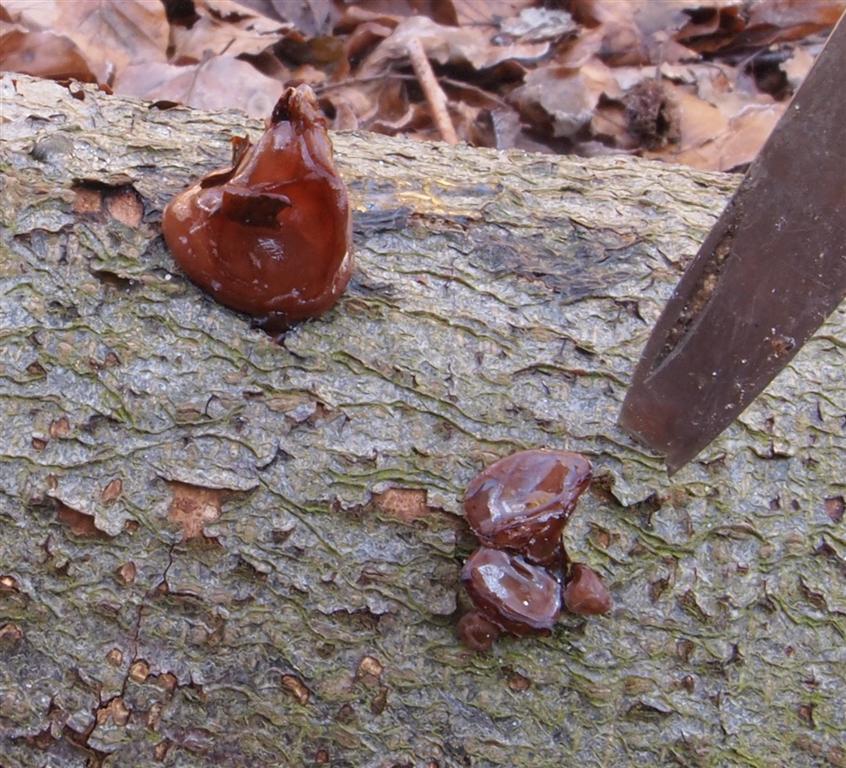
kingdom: Fungi
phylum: Basidiomycota
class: Agaricomycetes
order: Auriculariales
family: Auriculariaceae
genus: Auricularia
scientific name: Auricularia auricula-judae
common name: almindelig judasøre
